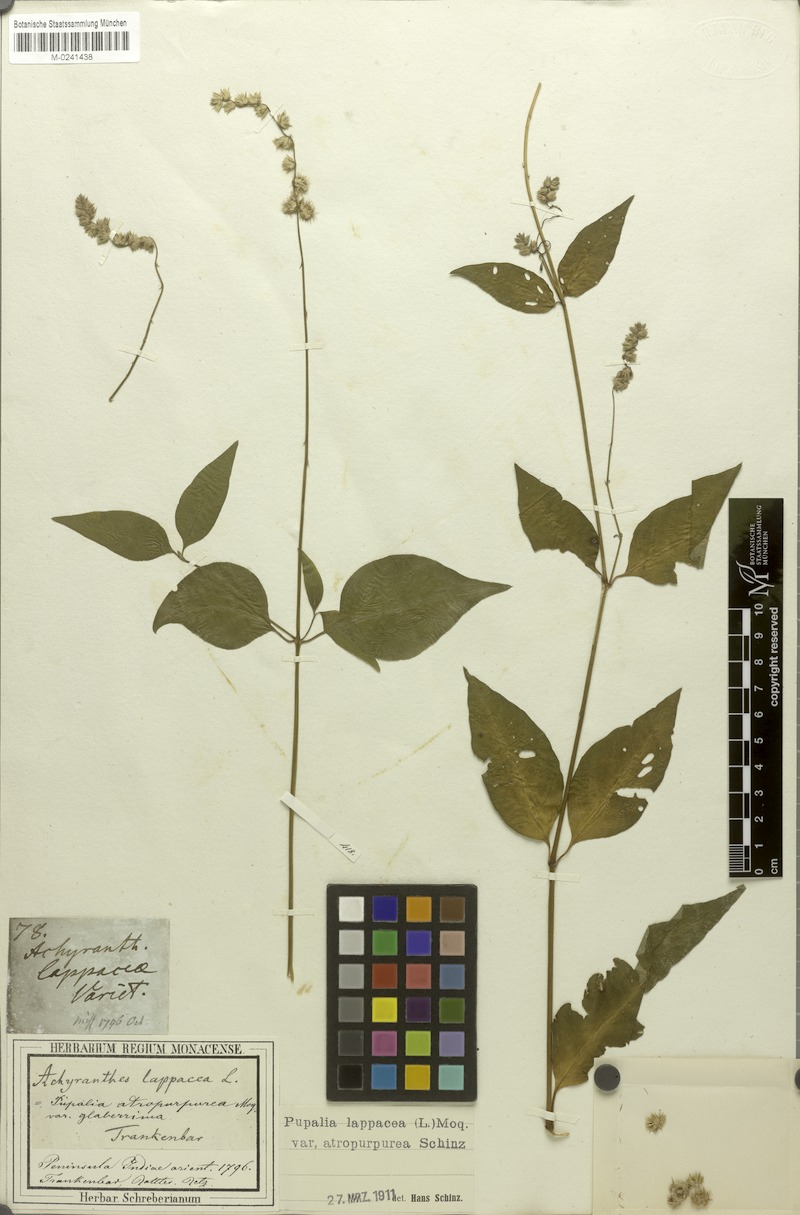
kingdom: Plantae
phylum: Tracheophyta
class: Magnoliopsida
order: Caryophyllales
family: Amaranthaceae
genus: Pupalia
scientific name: Pupalia lappacea
